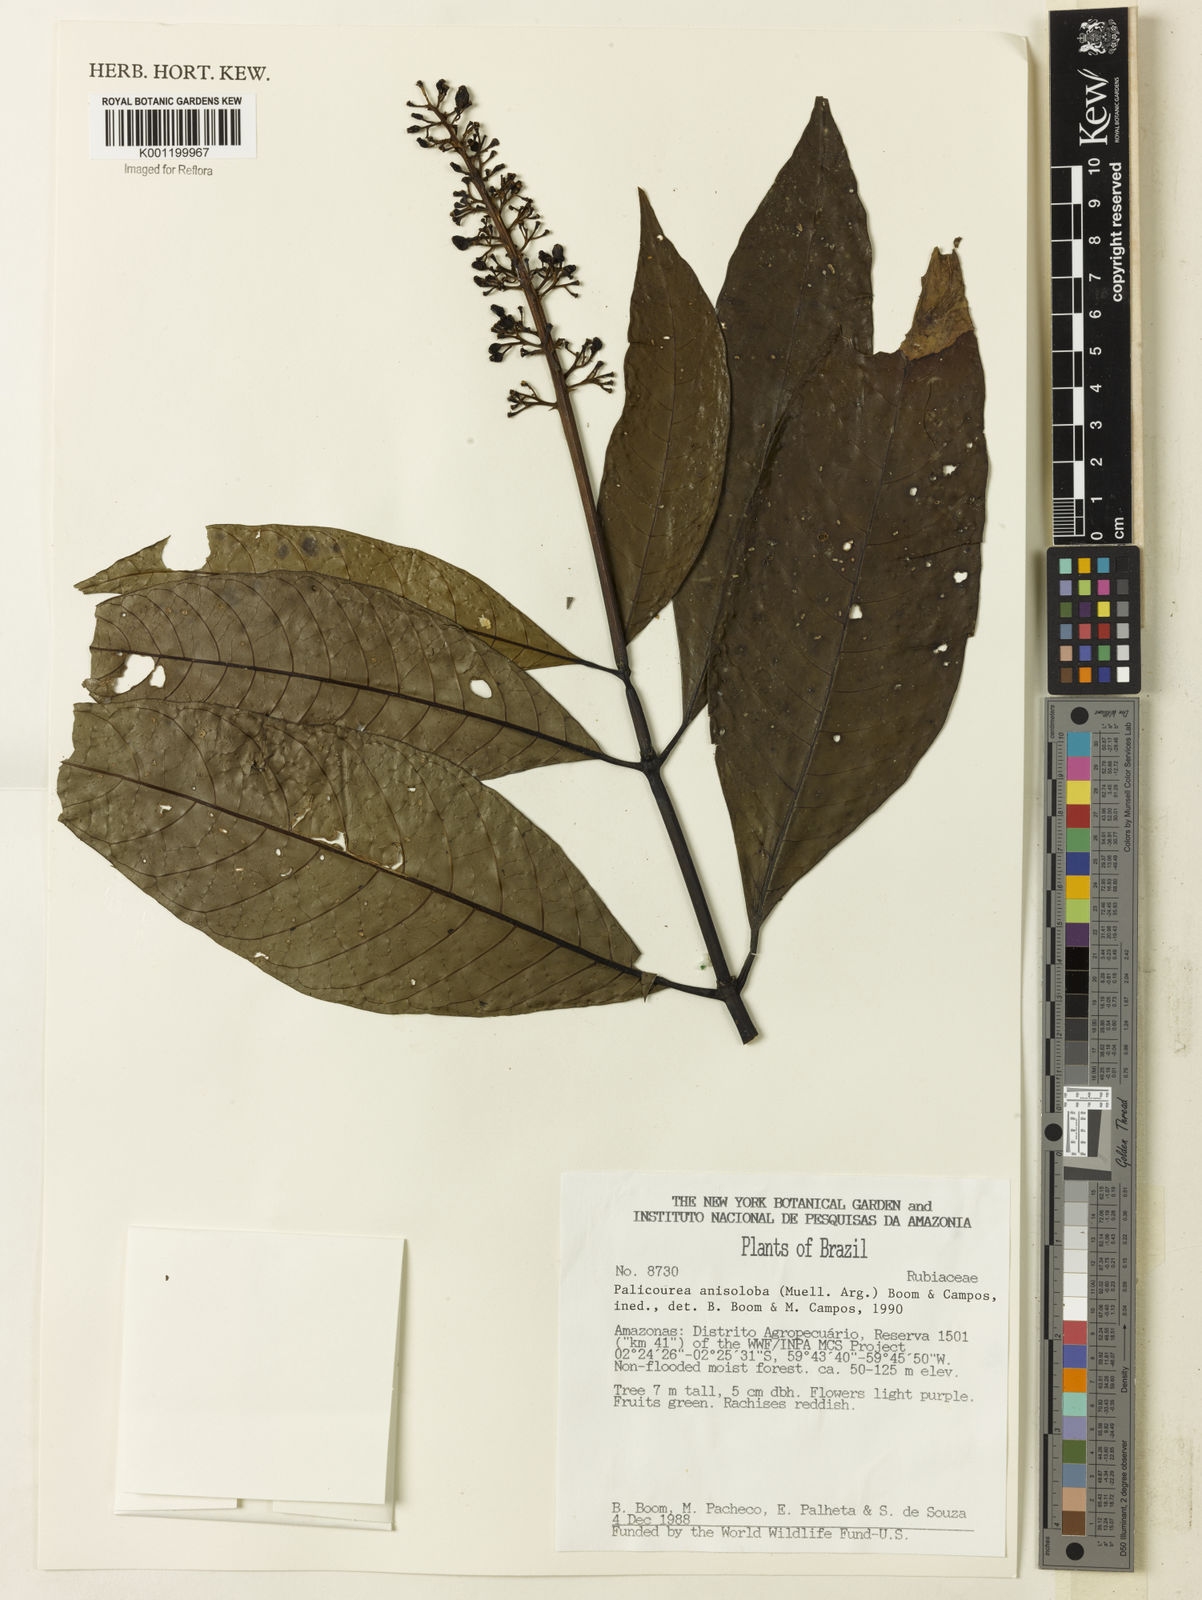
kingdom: Plantae
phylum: Tracheophyta
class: Magnoliopsida
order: Gentianales
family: Rubiaceae
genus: Palicourea
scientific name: Palicourea
